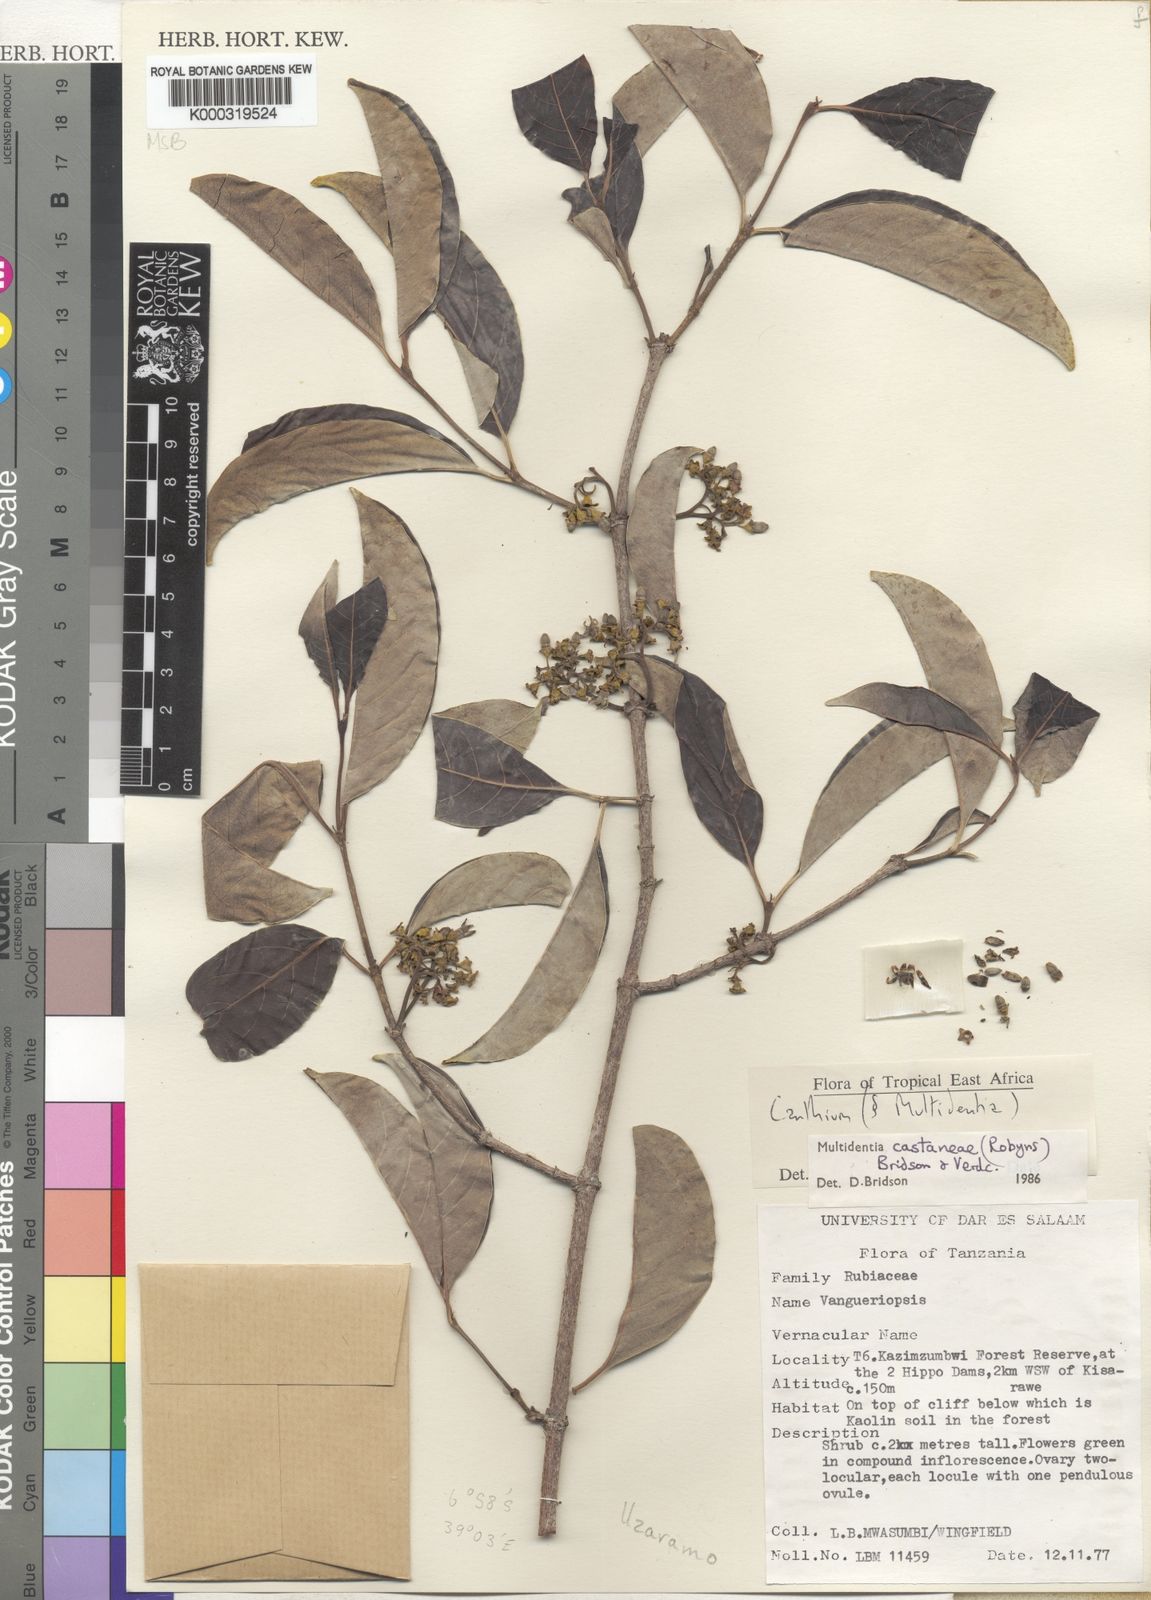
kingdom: Plantae
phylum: Tracheophyta
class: Magnoliopsida
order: Gentianales
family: Rubiaceae
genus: Multidentia
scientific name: Multidentia castanea
